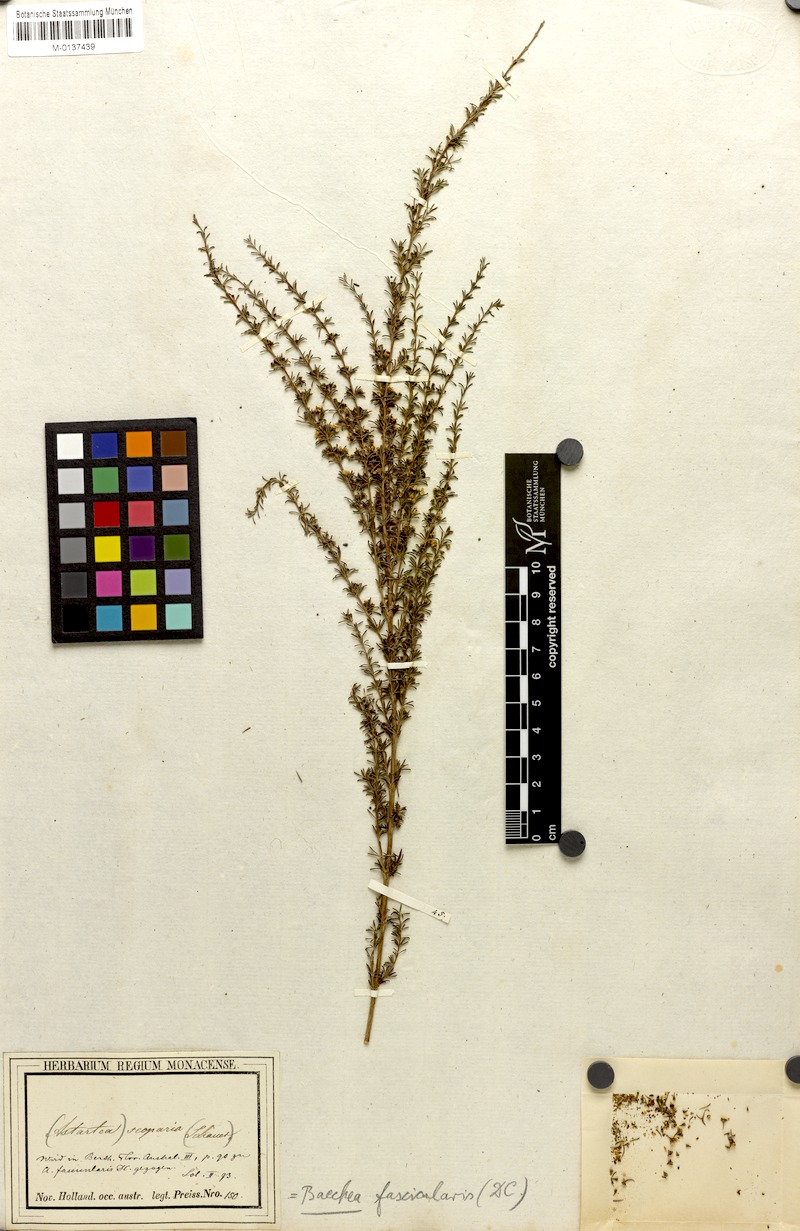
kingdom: Plantae
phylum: Tracheophyta
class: Magnoliopsida
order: Myrtales
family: Myrtaceae
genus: Astartea
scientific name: Astartea fascicularis
